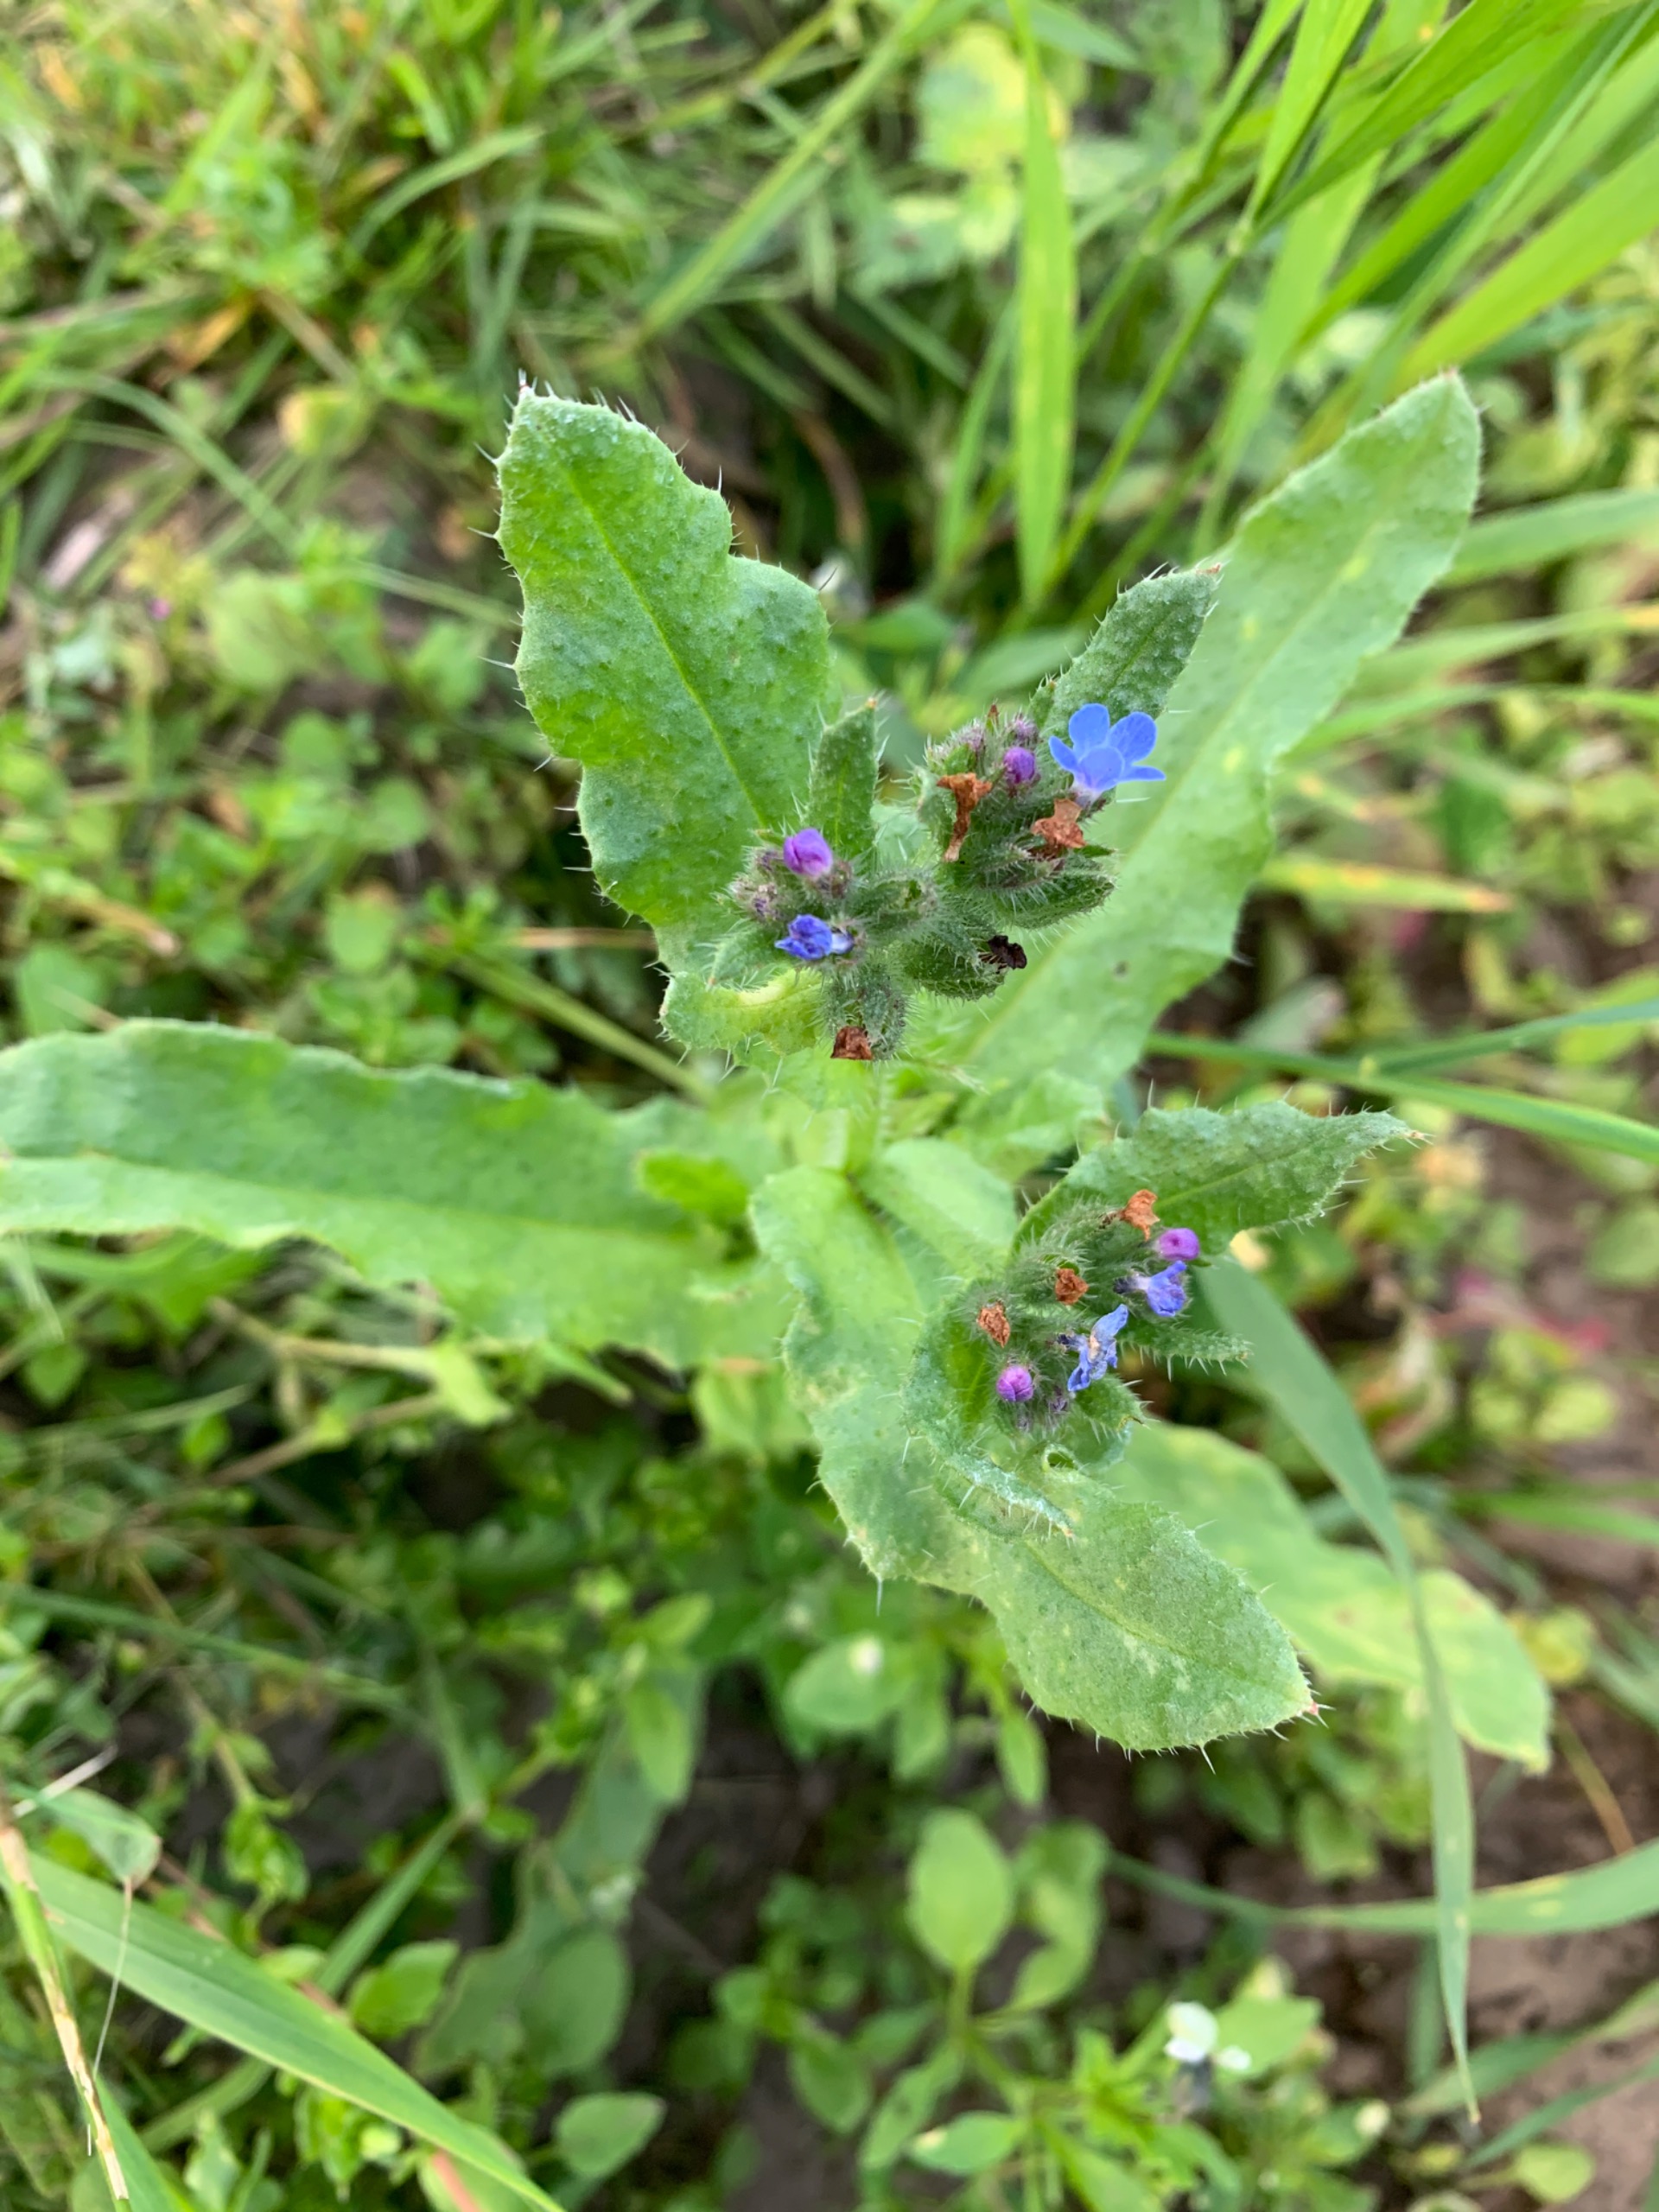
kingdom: Plantae
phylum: Tracheophyta
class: Magnoliopsida
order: Boraginales
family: Boraginaceae
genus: Lycopsis
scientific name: Lycopsis arvensis
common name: Krumhals
